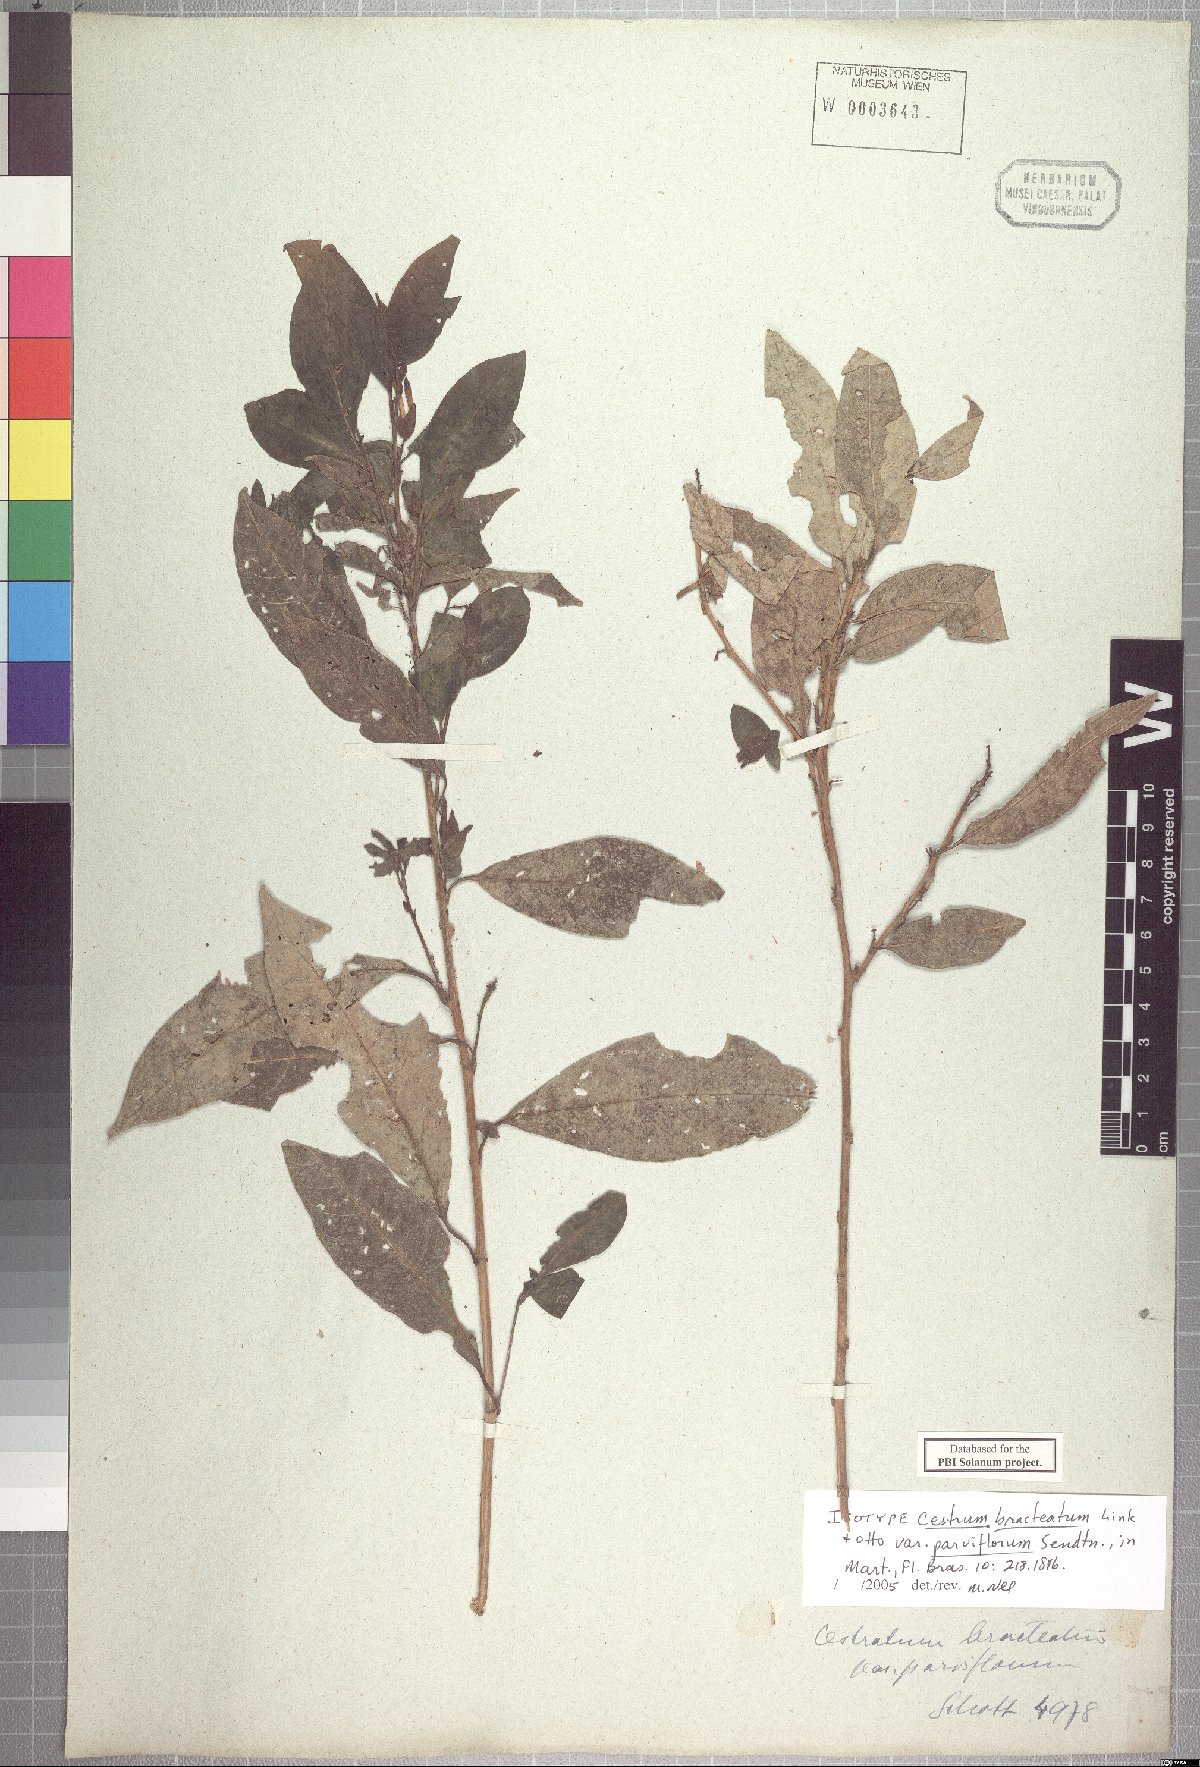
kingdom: Plantae
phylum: Tracheophyta
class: Magnoliopsida
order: Solanales
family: Solanaceae
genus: Cestrum
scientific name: Cestrum bracteatum
